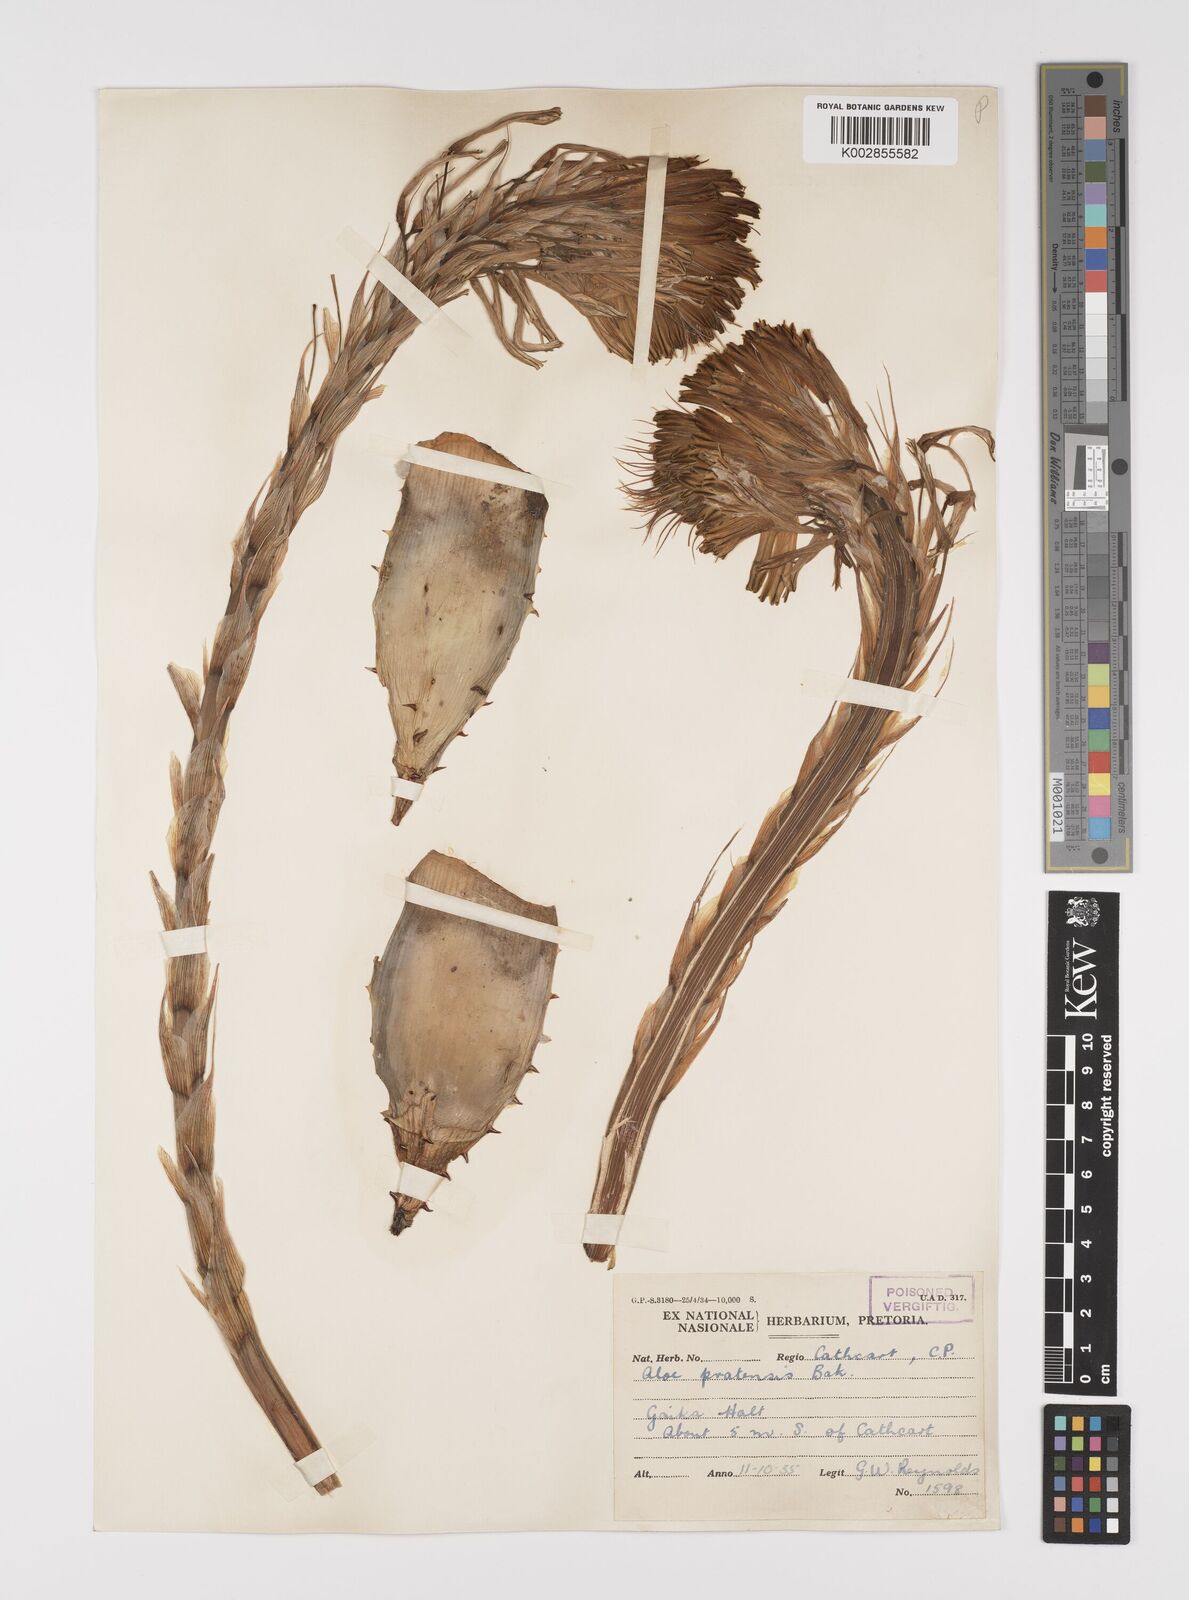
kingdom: Plantae
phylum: Tracheophyta
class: Liliopsida
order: Asparagales
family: Asphodelaceae
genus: Aloe
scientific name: Aloe pratensis
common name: Meadow aloe
